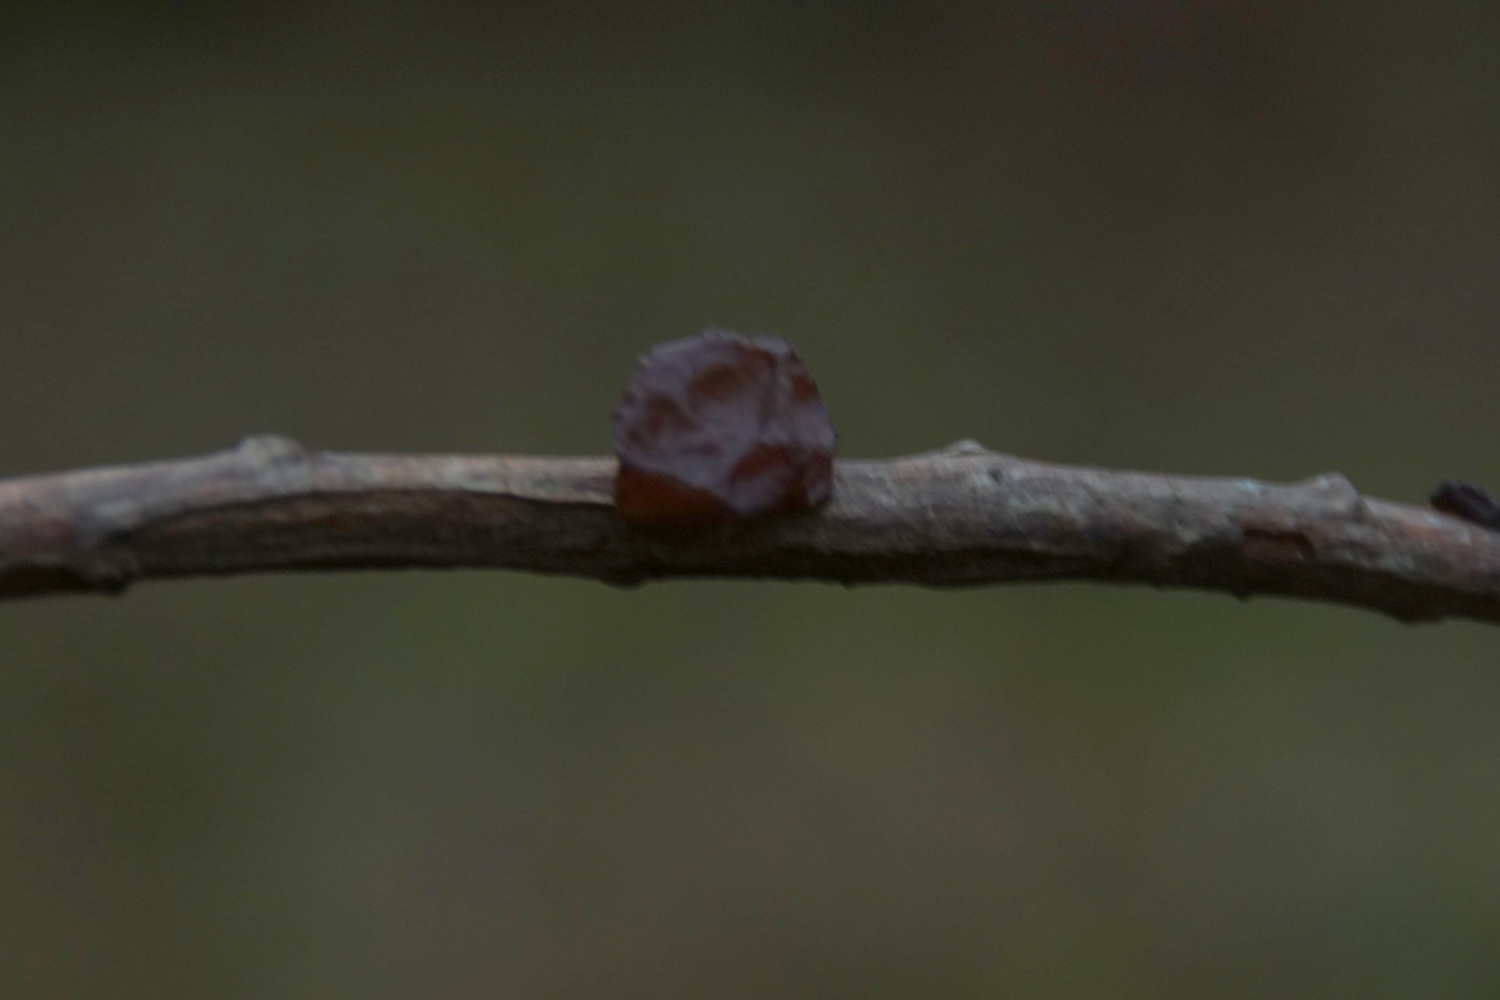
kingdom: Fungi
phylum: Basidiomycota
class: Agaricomycetes
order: Auriculariales
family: Auriculariaceae
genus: Exidia
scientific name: Exidia recisa
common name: pile-bævretop
